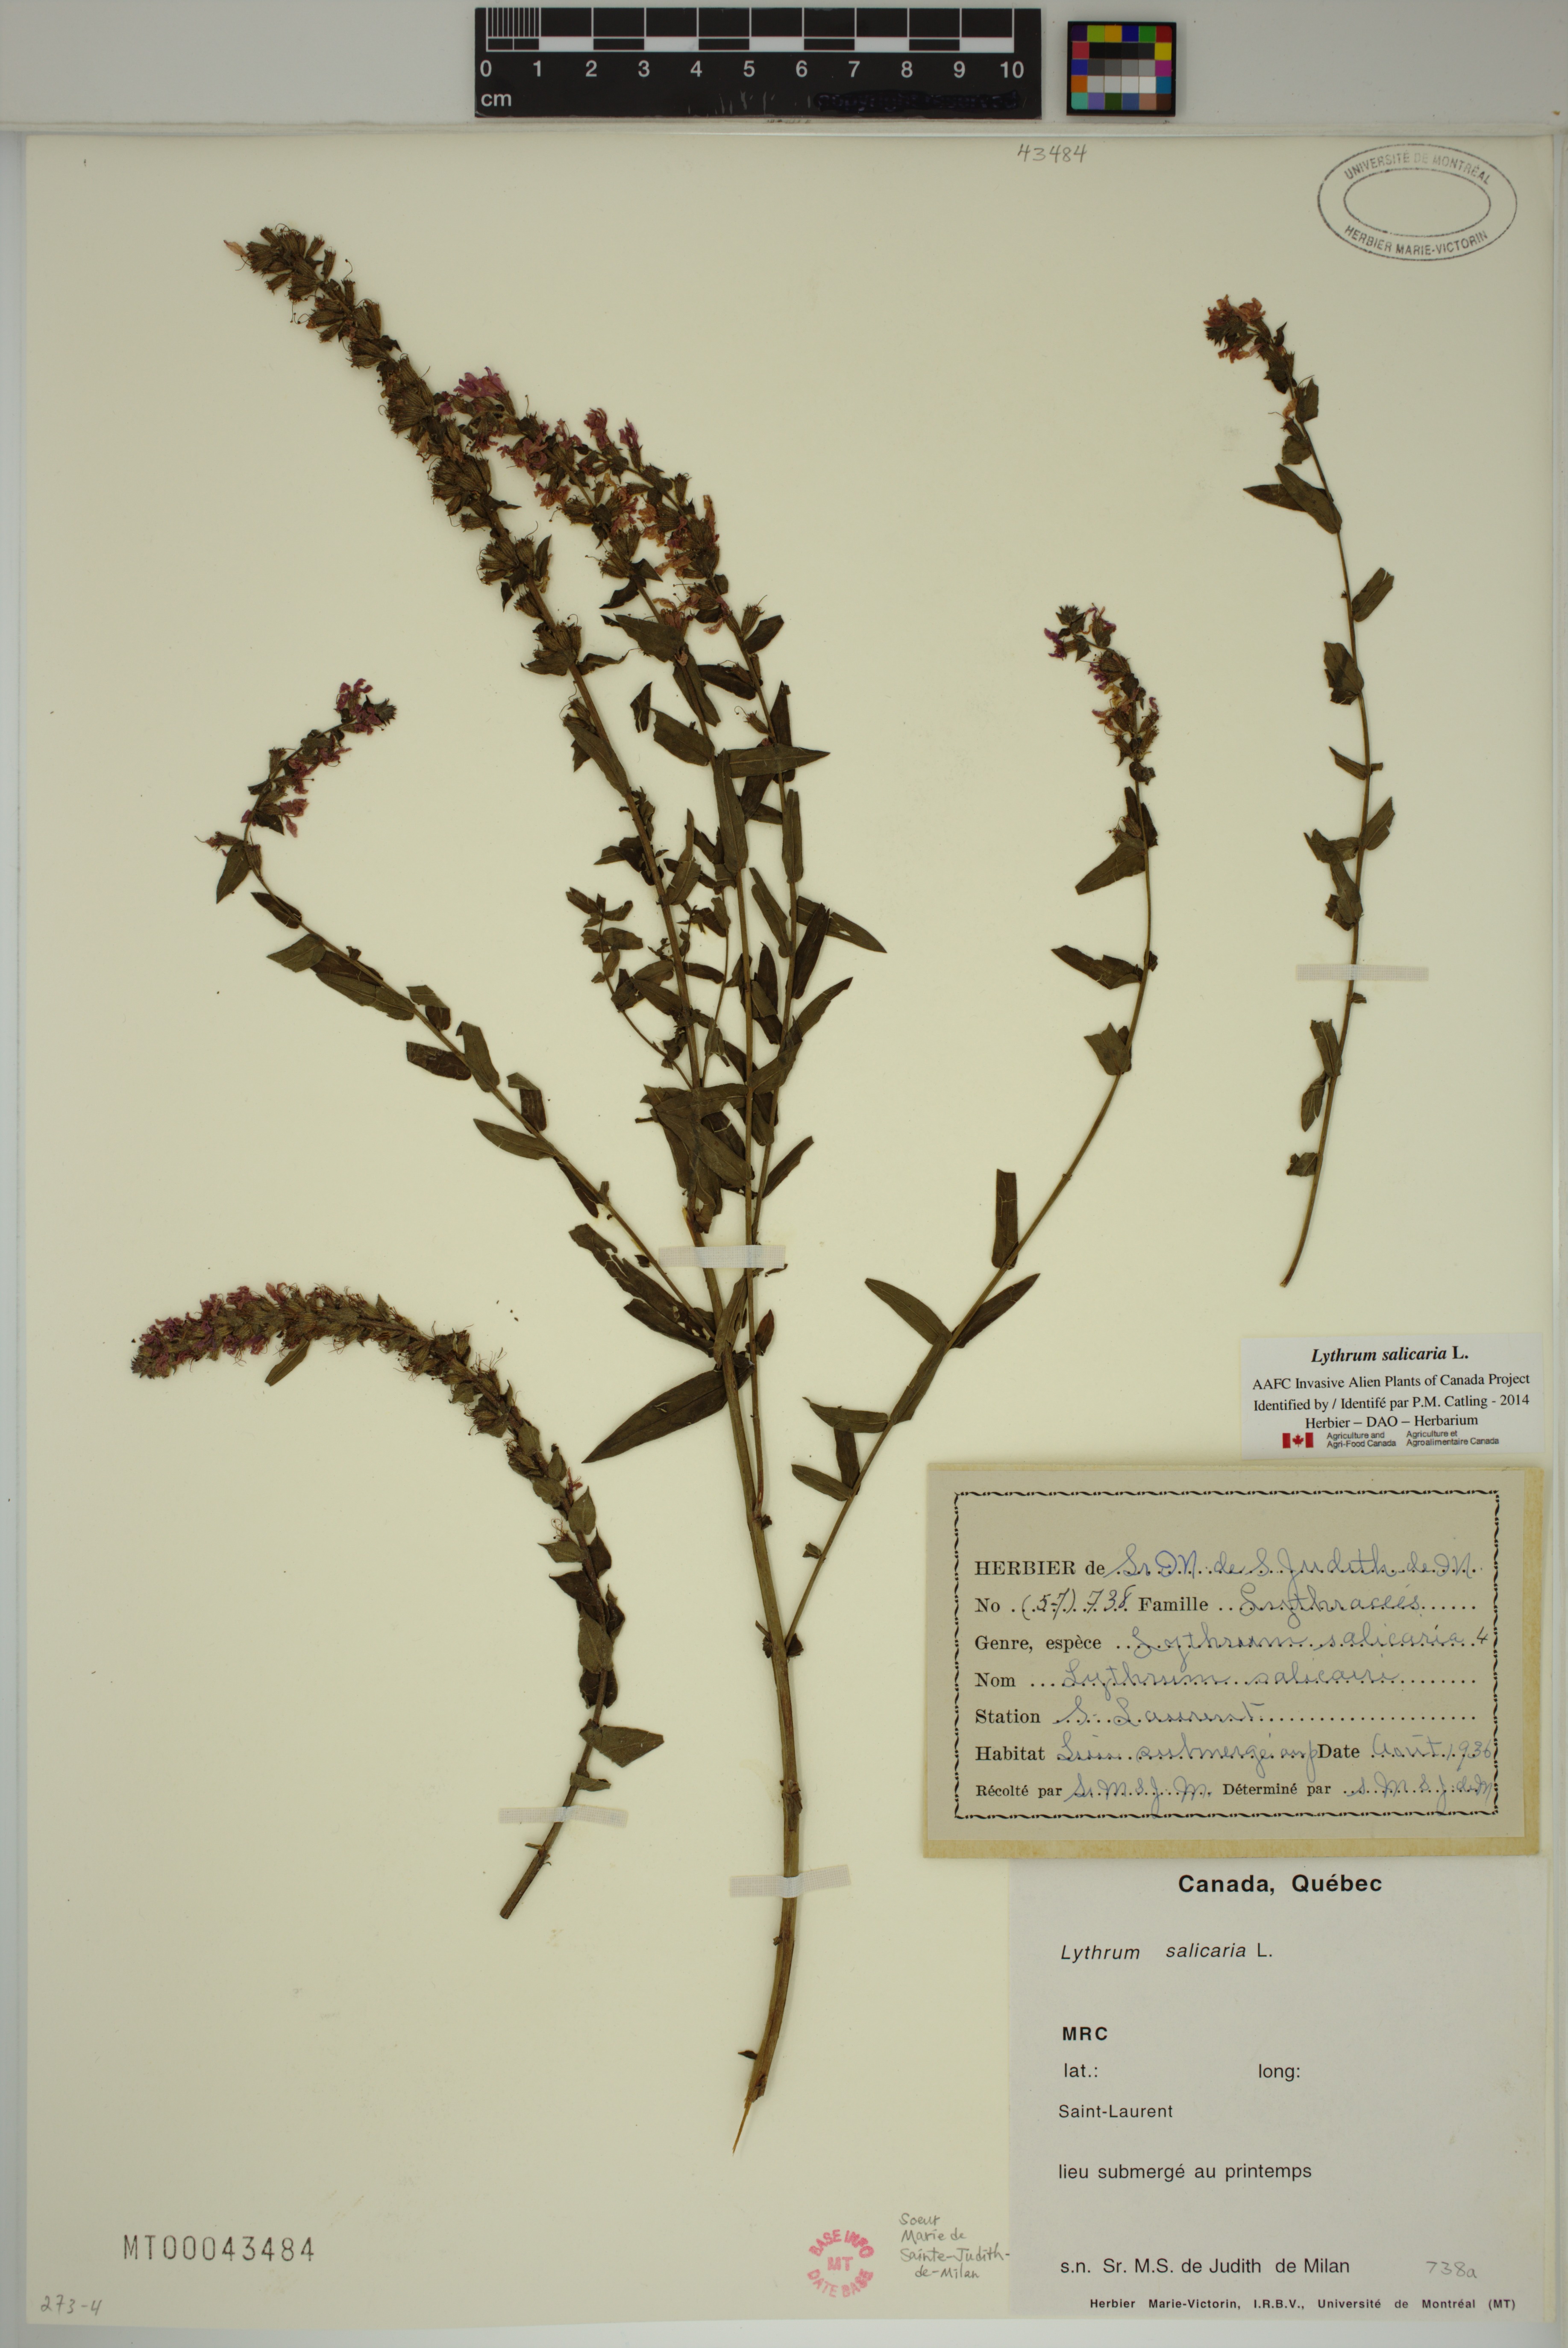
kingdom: Plantae
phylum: Tracheophyta
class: Magnoliopsida
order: Myrtales
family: Lythraceae
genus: Lythrum
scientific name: Lythrum salicaria
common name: Purple loosestrife
